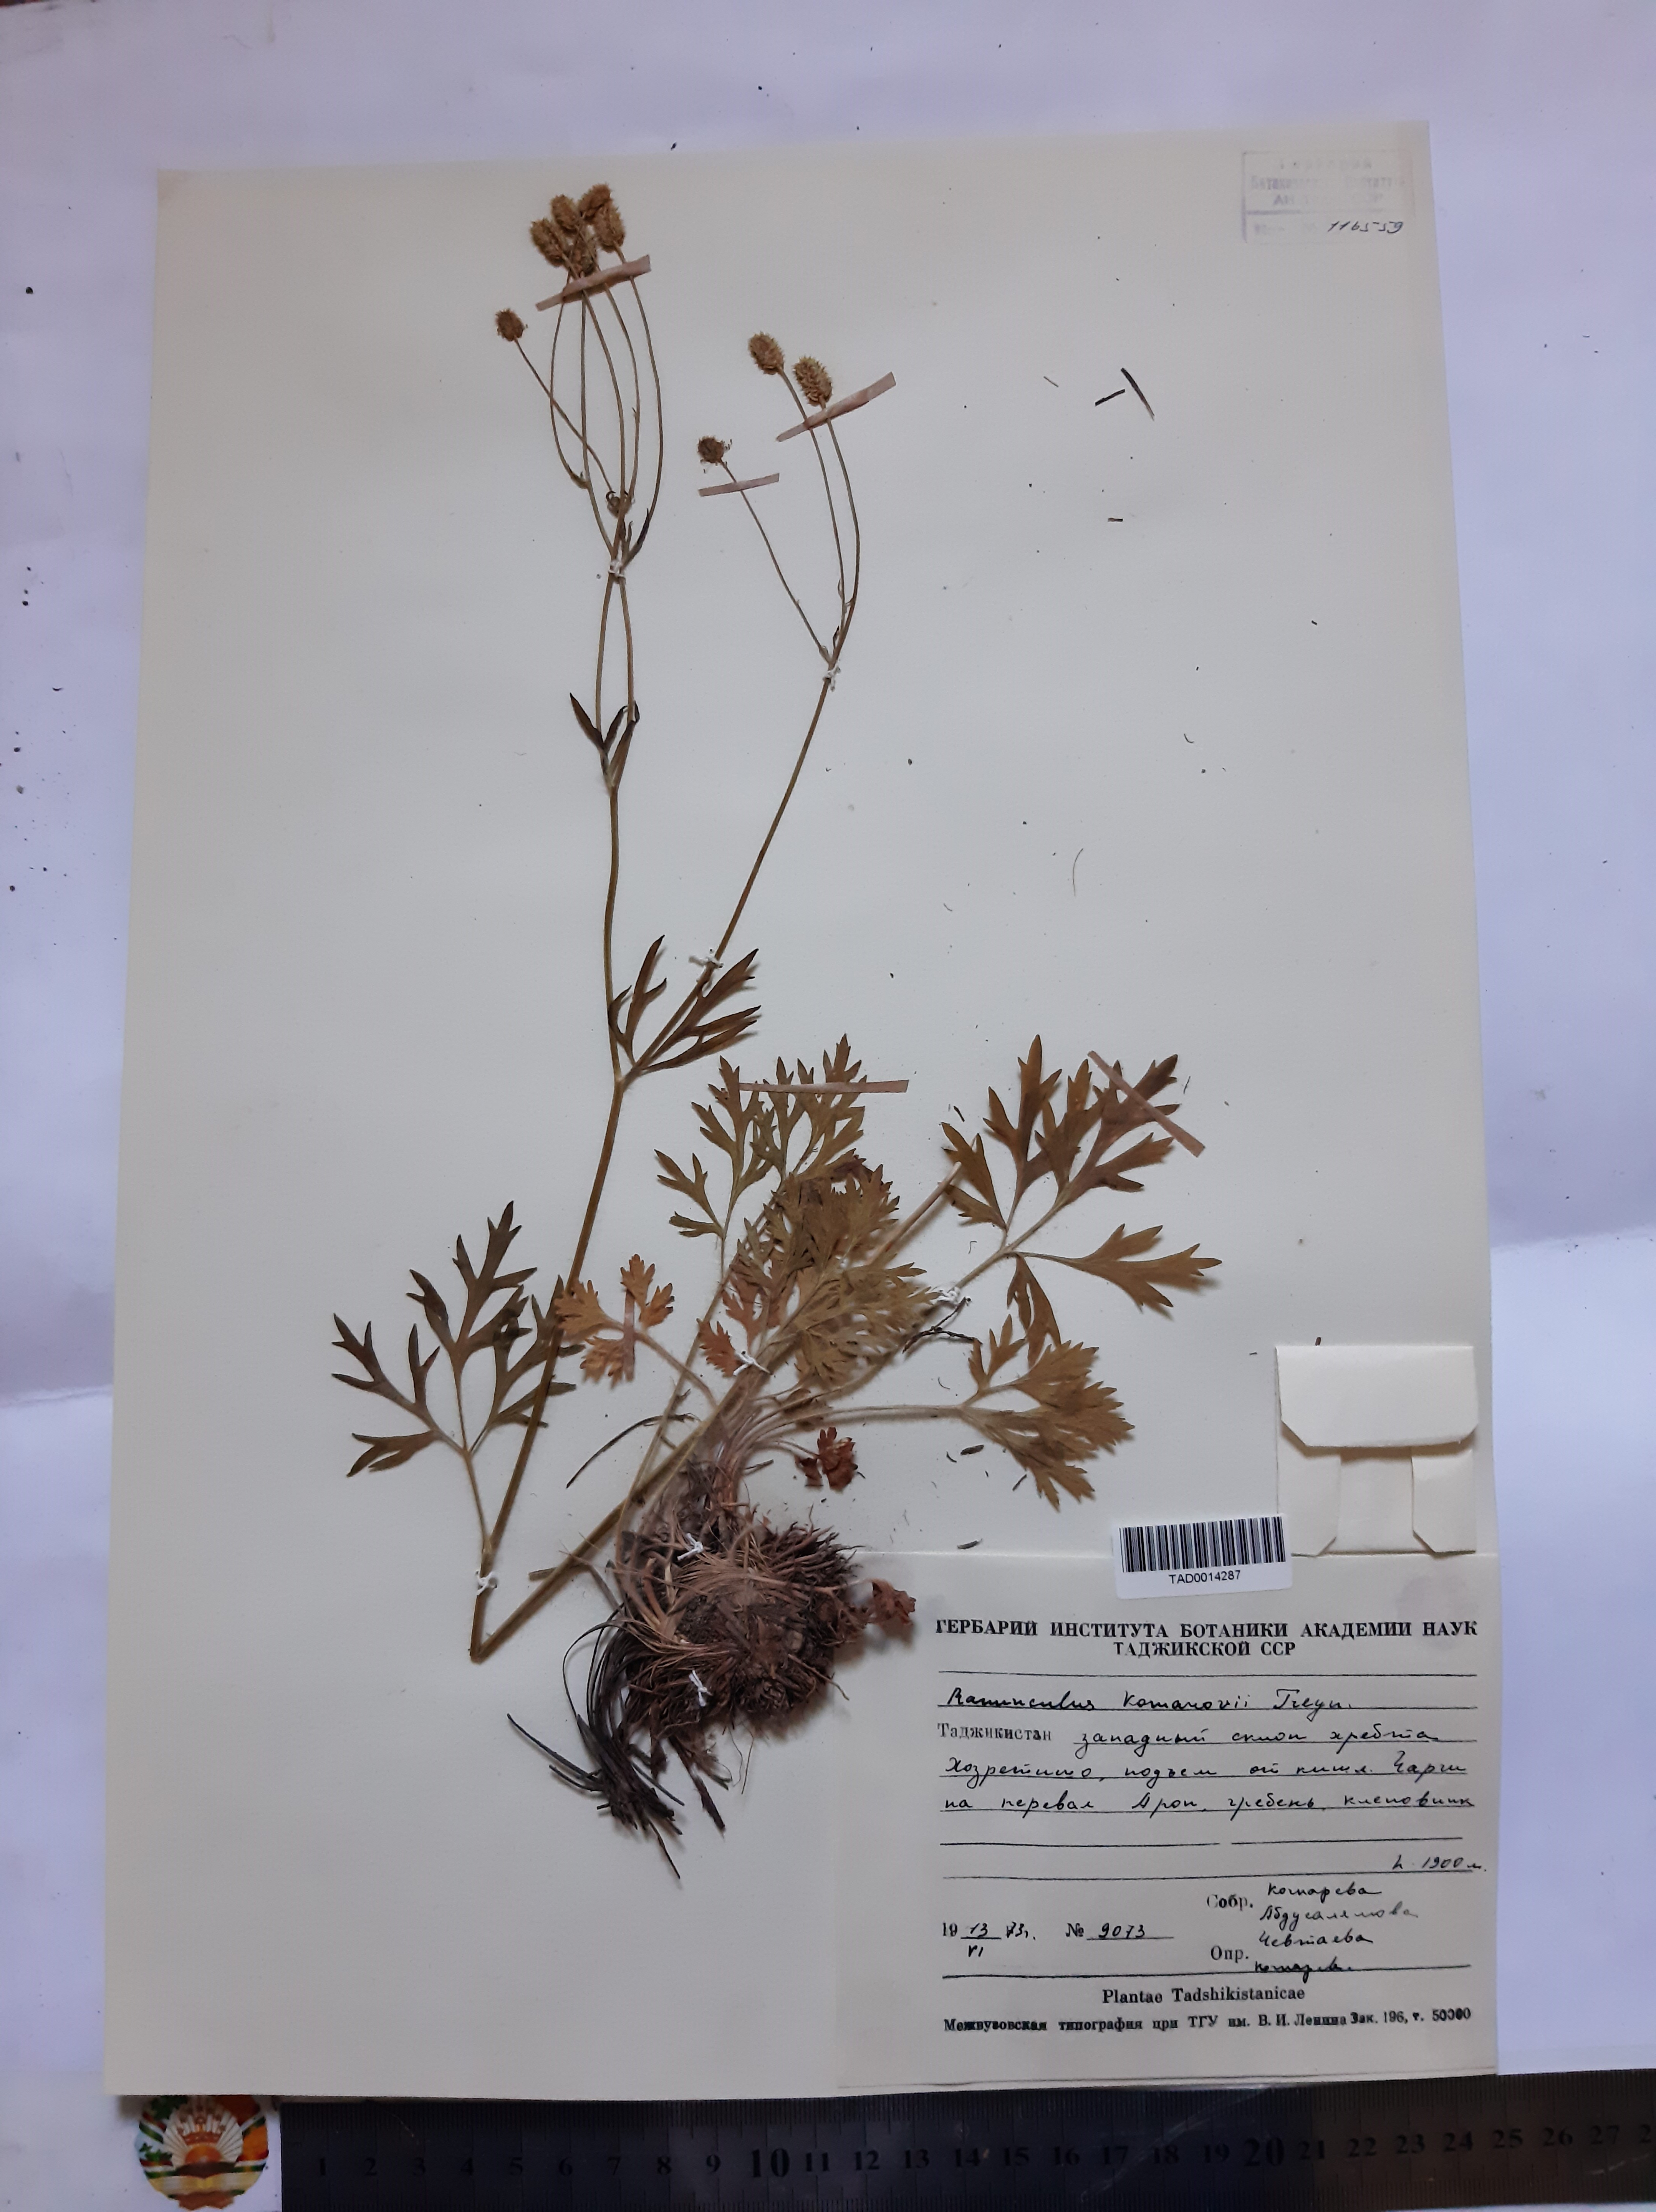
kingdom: Plantae
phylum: Tracheophyta
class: Magnoliopsida
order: Ranunculales
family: Ranunculaceae
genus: Ranunculus
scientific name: Ranunculus komarovii
